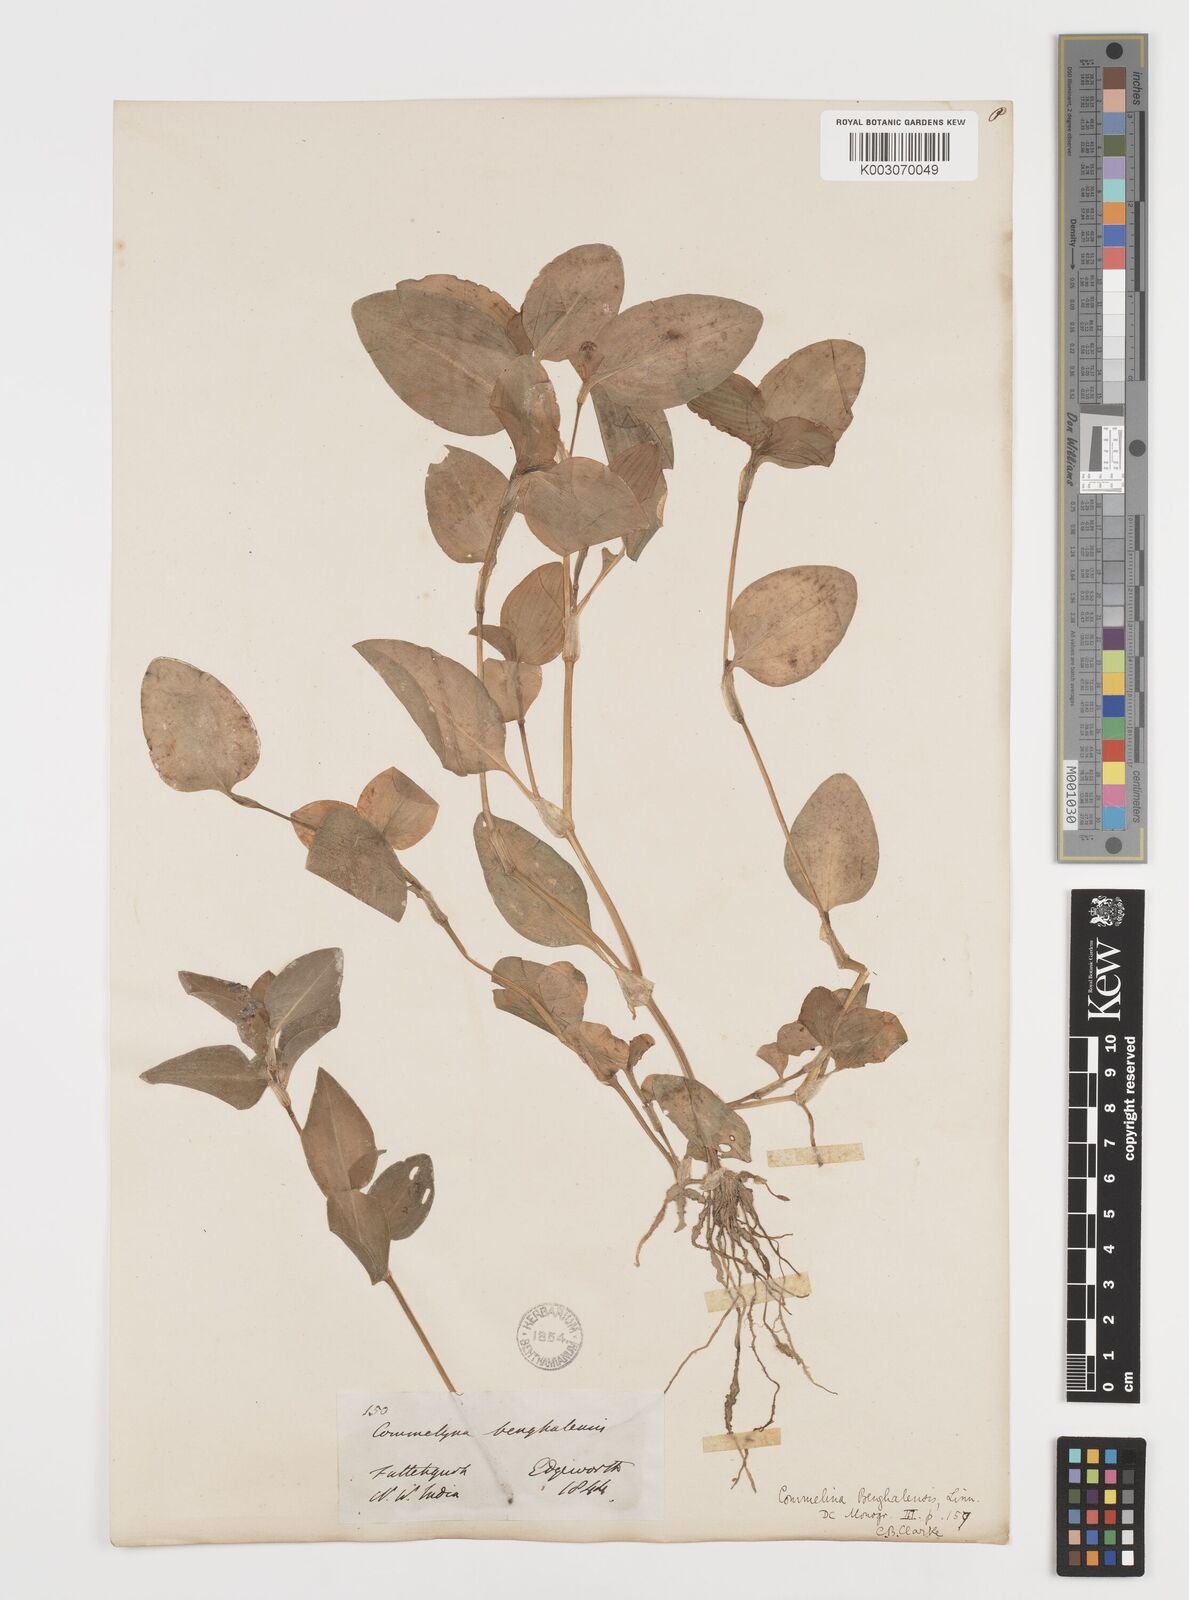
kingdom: Plantae
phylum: Tracheophyta
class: Liliopsida
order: Commelinales
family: Commelinaceae
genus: Commelina
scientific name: Commelina benghalensis
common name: Jio
